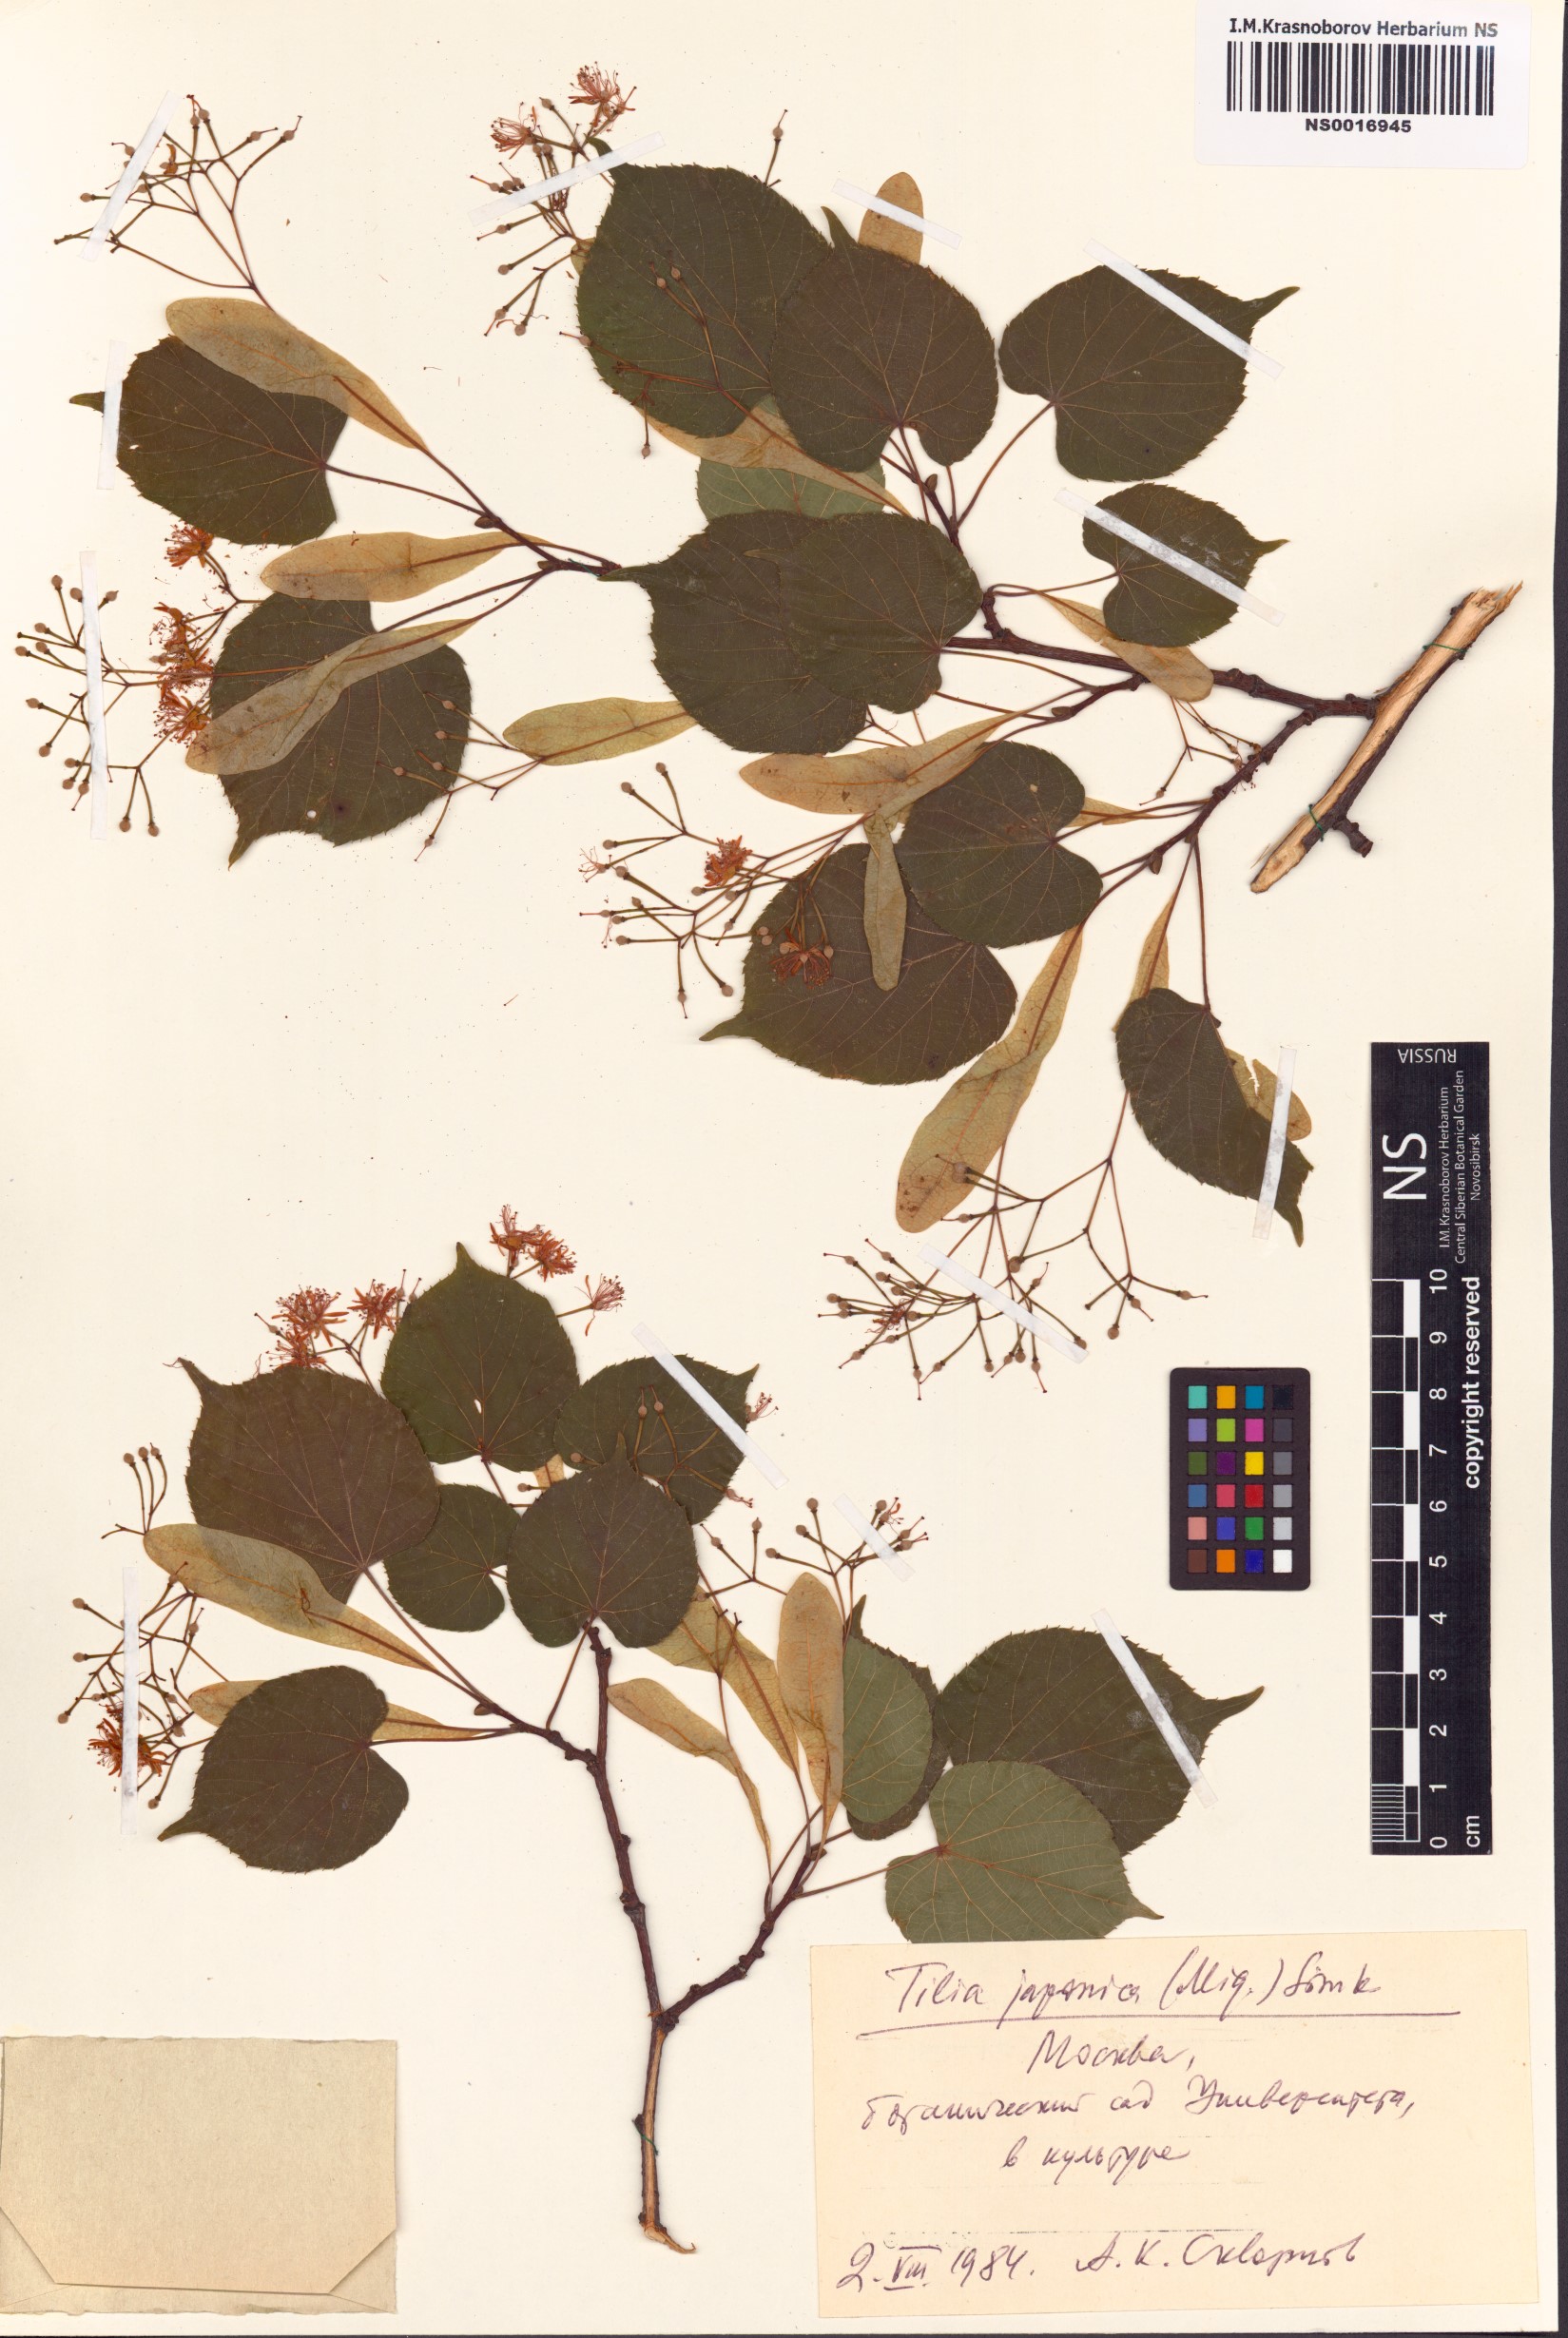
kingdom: Plantae
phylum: Tracheophyta
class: Magnoliopsida
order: Malvales
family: Malvaceae
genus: Tilia
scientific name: Tilia japonica
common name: Japanese lime
